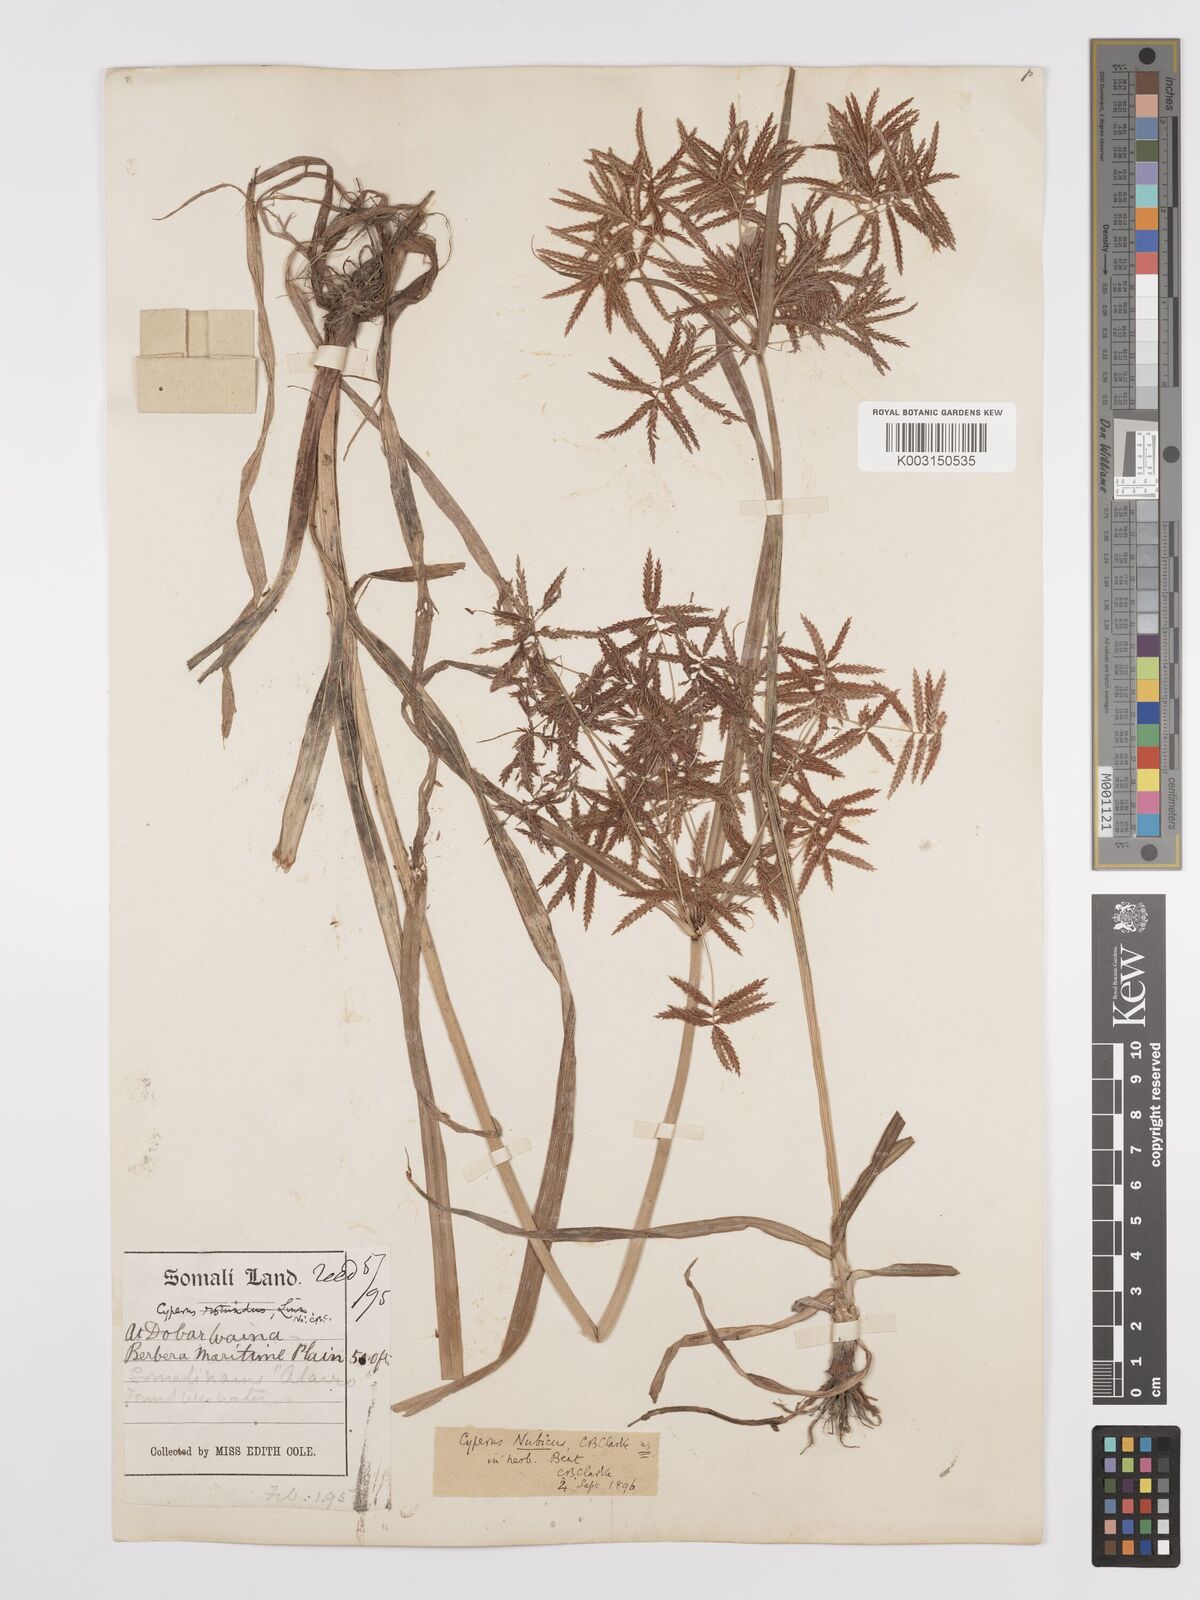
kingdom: Plantae
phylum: Tracheophyta
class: Liliopsida
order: Poales
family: Cyperaceae
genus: Cyperus
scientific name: Cyperus bifax
